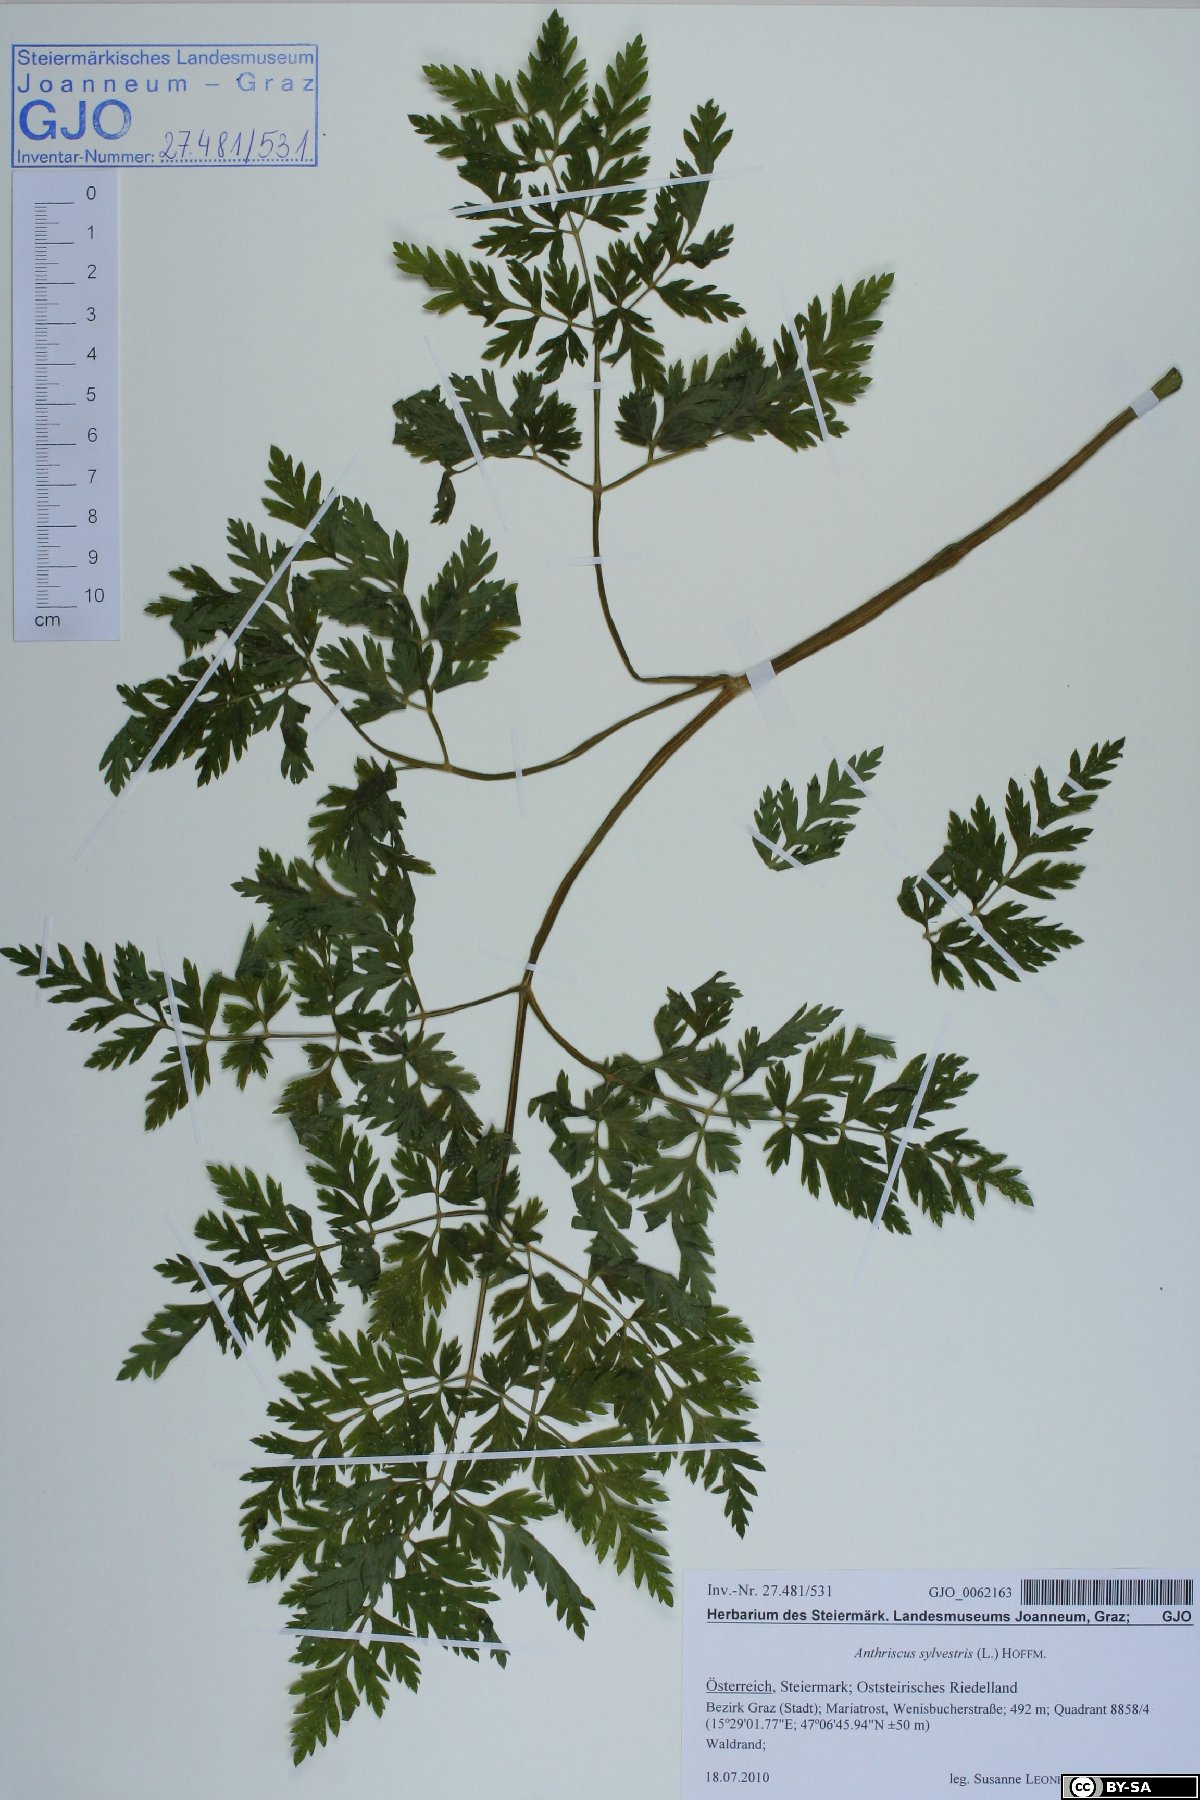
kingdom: Plantae
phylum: Tracheophyta
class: Magnoliopsida
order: Apiales
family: Apiaceae
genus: Anthriscus
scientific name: Anthriscus sylvestris
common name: Cow parsley
